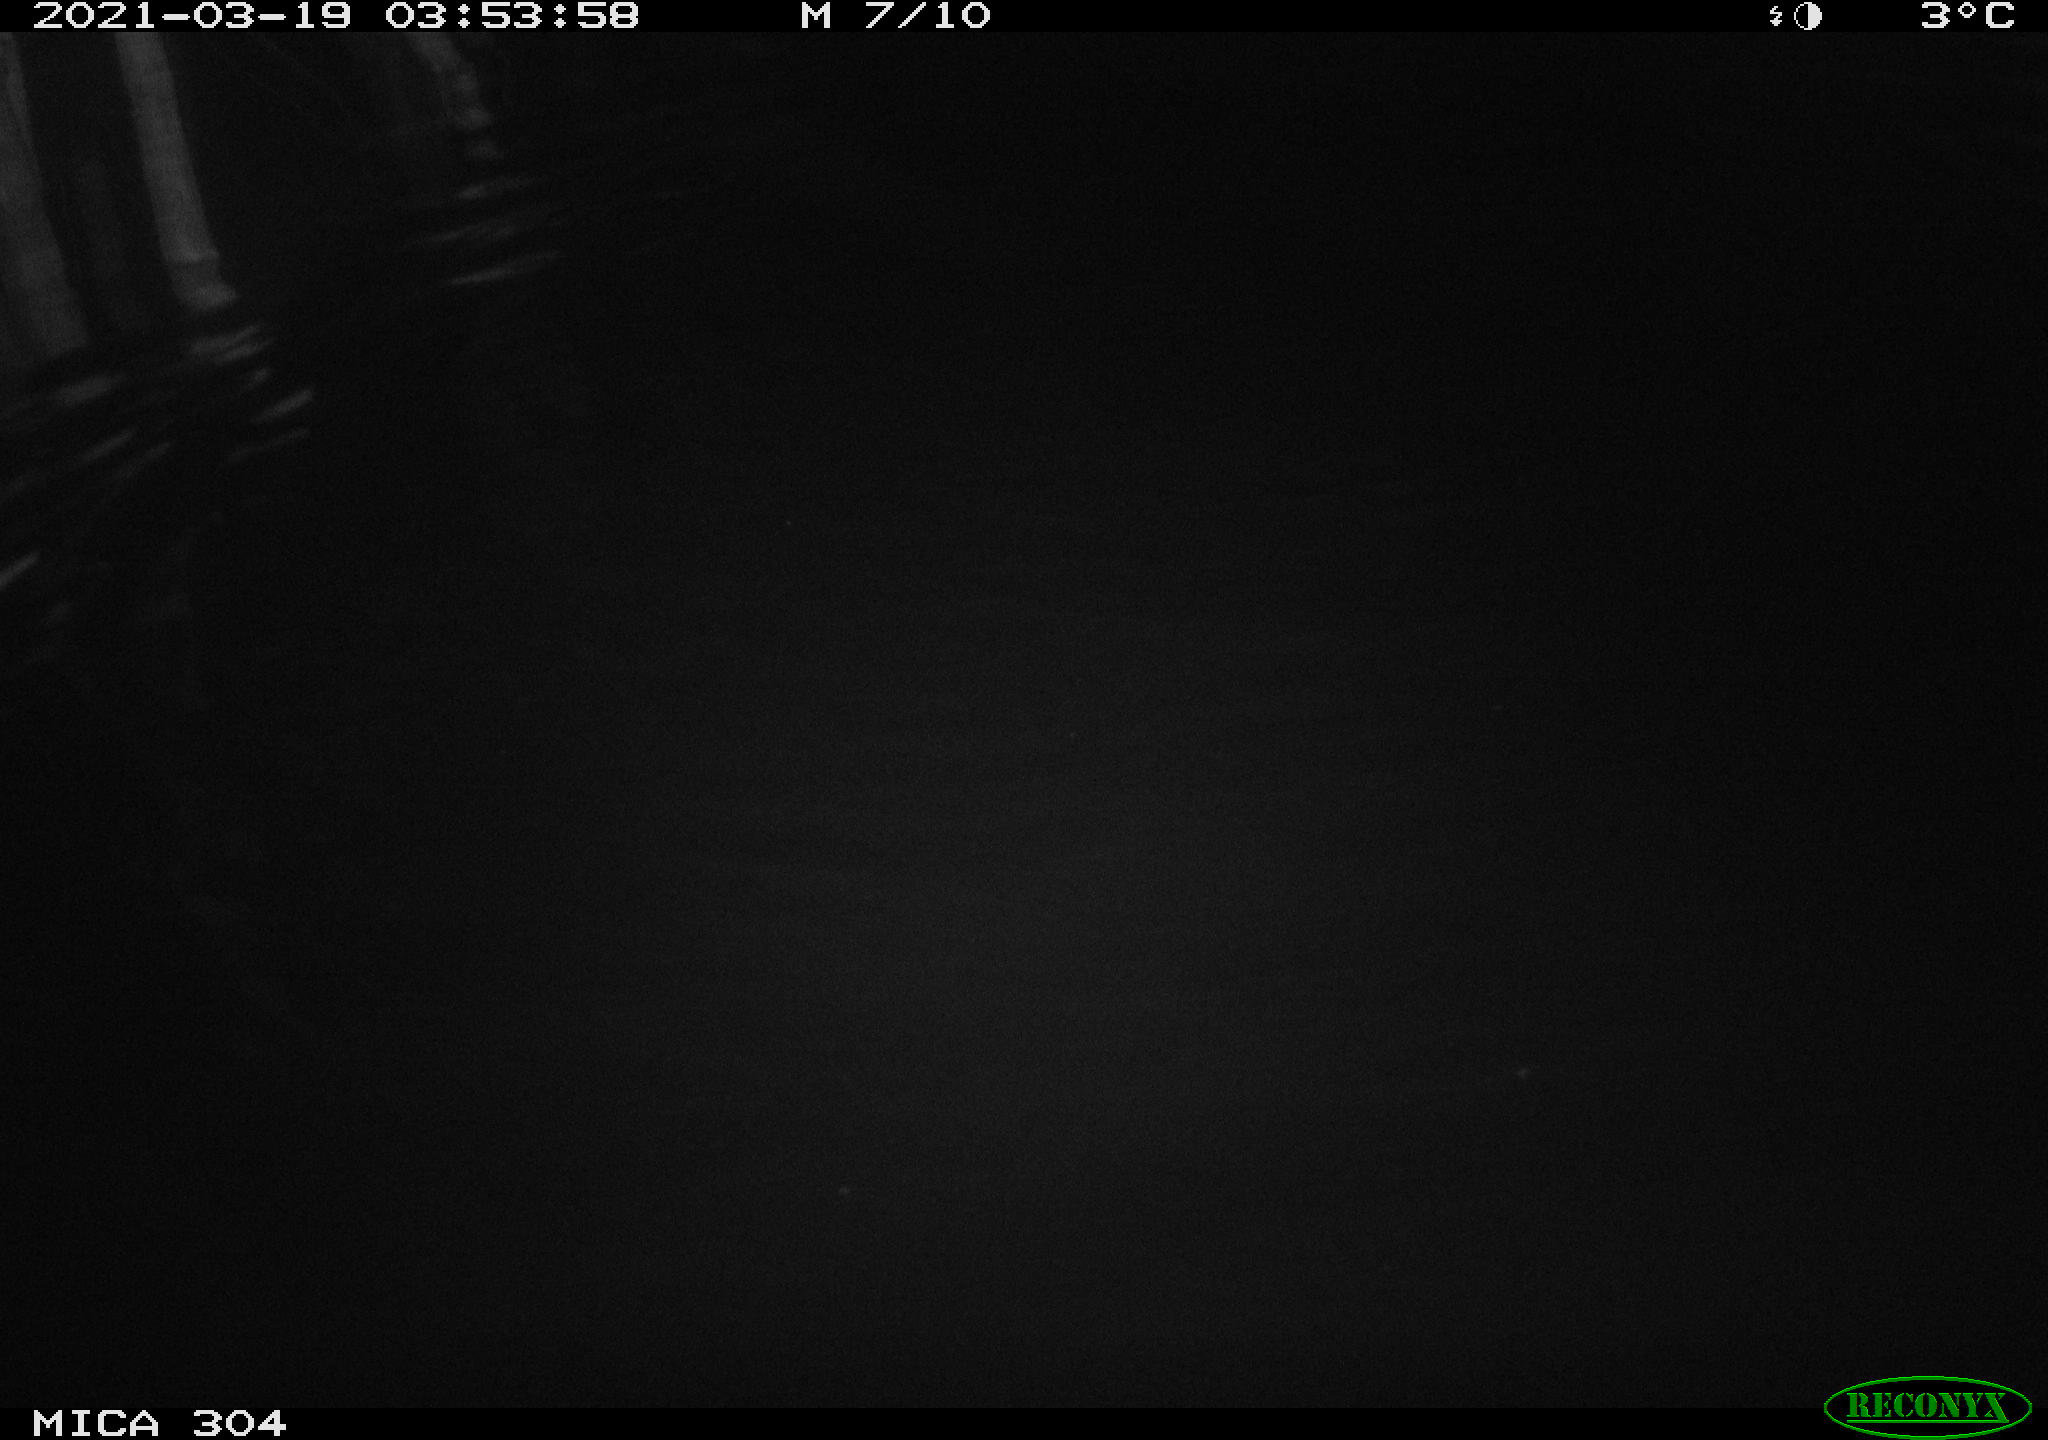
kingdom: Animalia
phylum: Chordata
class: Mammalia
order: Rodentia
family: Cricetidae
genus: Ondatra
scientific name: Ondatra zibethicus
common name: Muskrat
